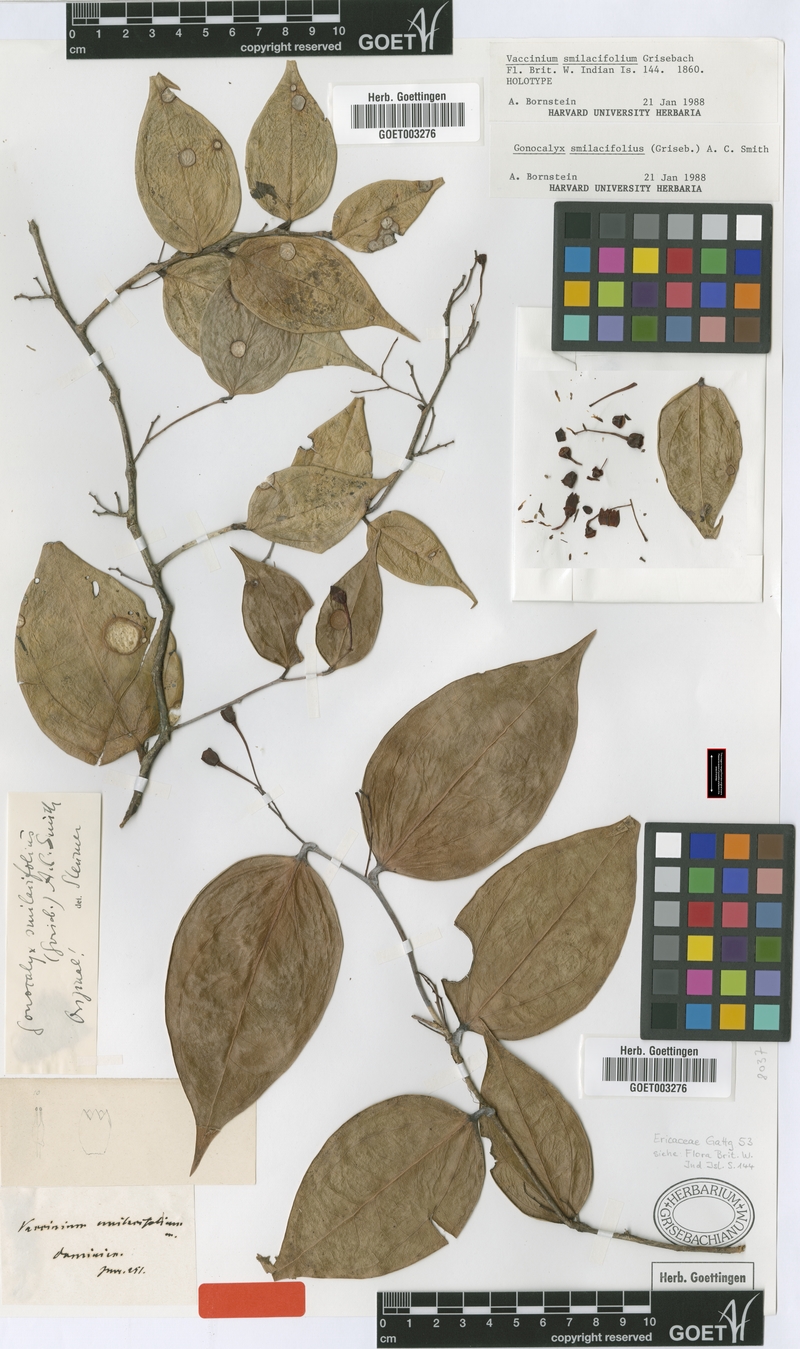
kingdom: Plantae
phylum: Tracheophyta
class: Magnoliopsida
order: Ericales
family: Ericaceae
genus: Gonocalyx
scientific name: Gonocalyx smilacifolius
